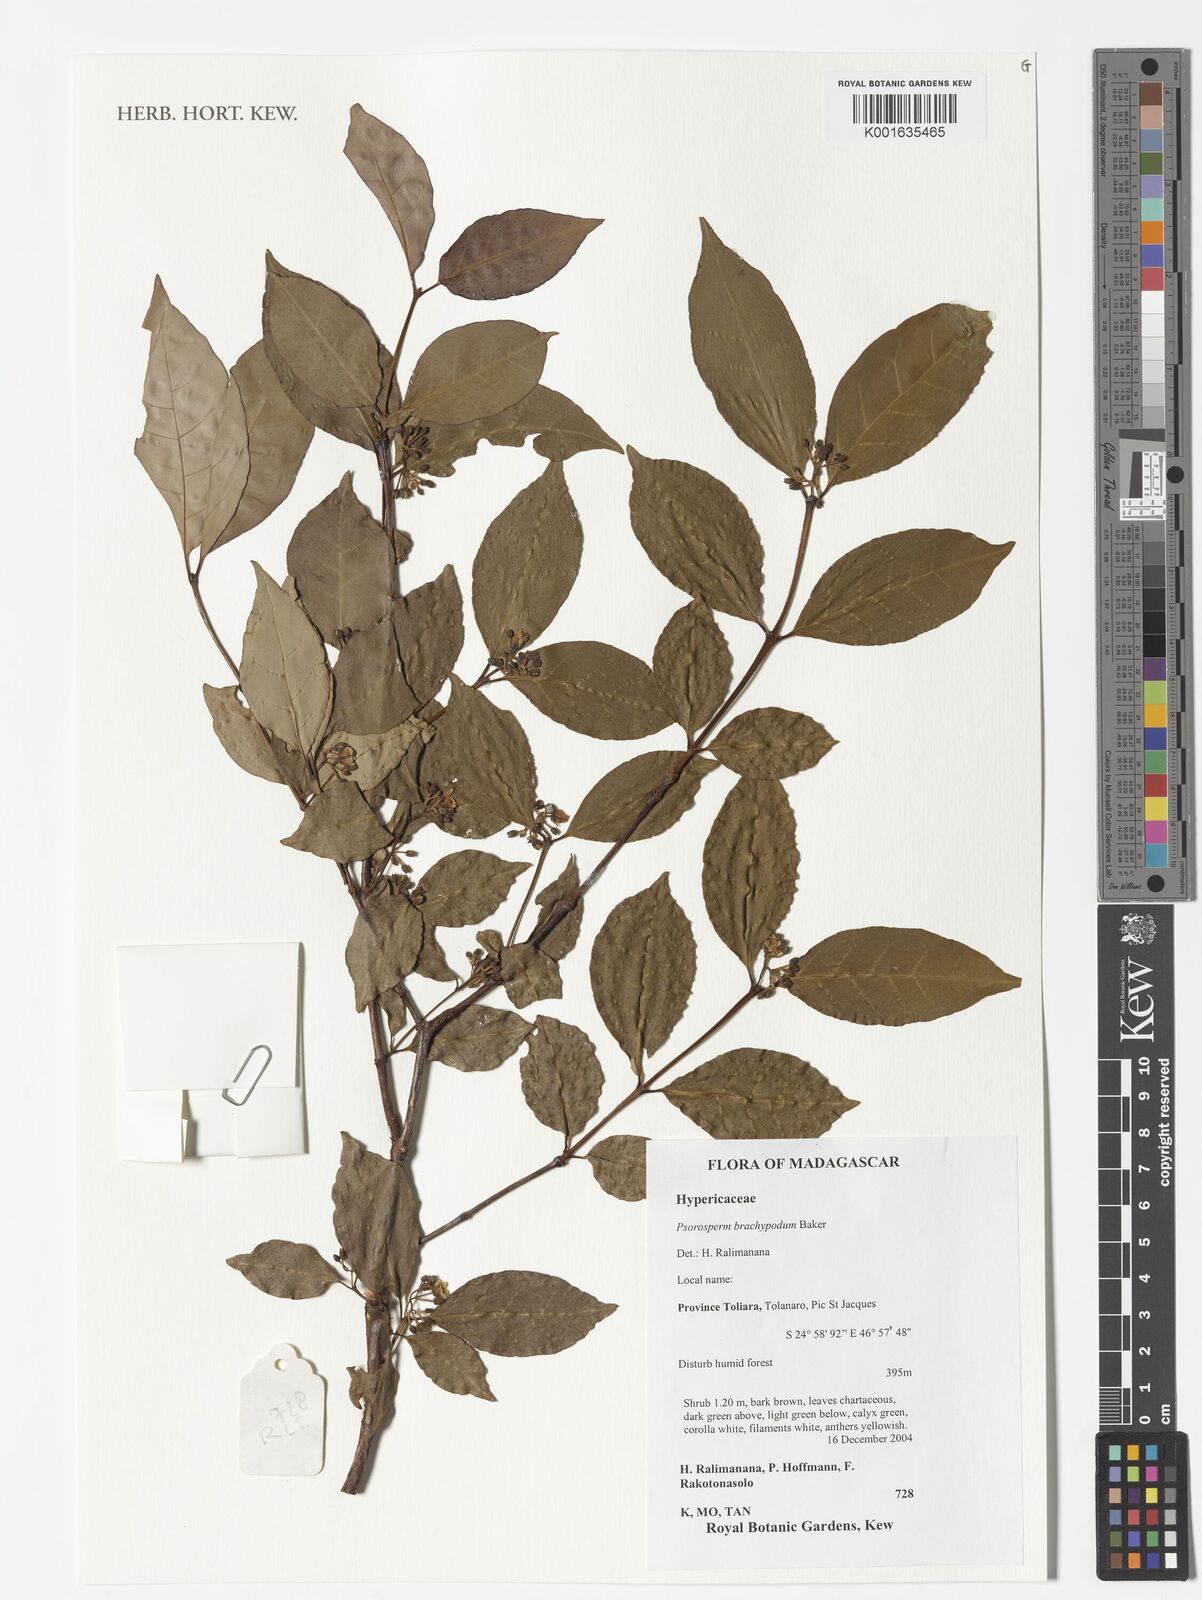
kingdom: Plantae
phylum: Tracheophyta
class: Magnoliopsida
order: Malpighiales
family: Hypericaceae
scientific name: Hypericaceae
